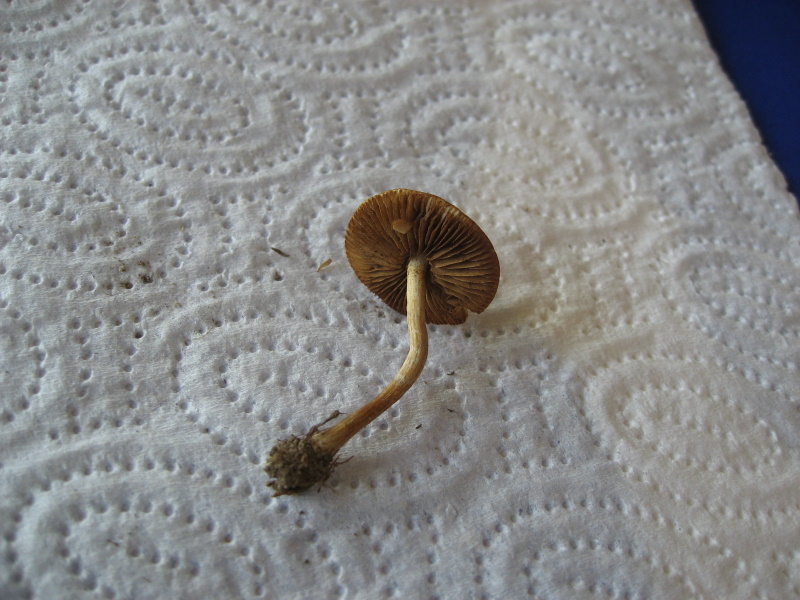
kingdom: Fungi
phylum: Basidiomycota
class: Agaricomycetes
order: Agaricales
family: Strophariaceae
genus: Agrocybe
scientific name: Agrocybe arvalis
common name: rodslående agerhat
